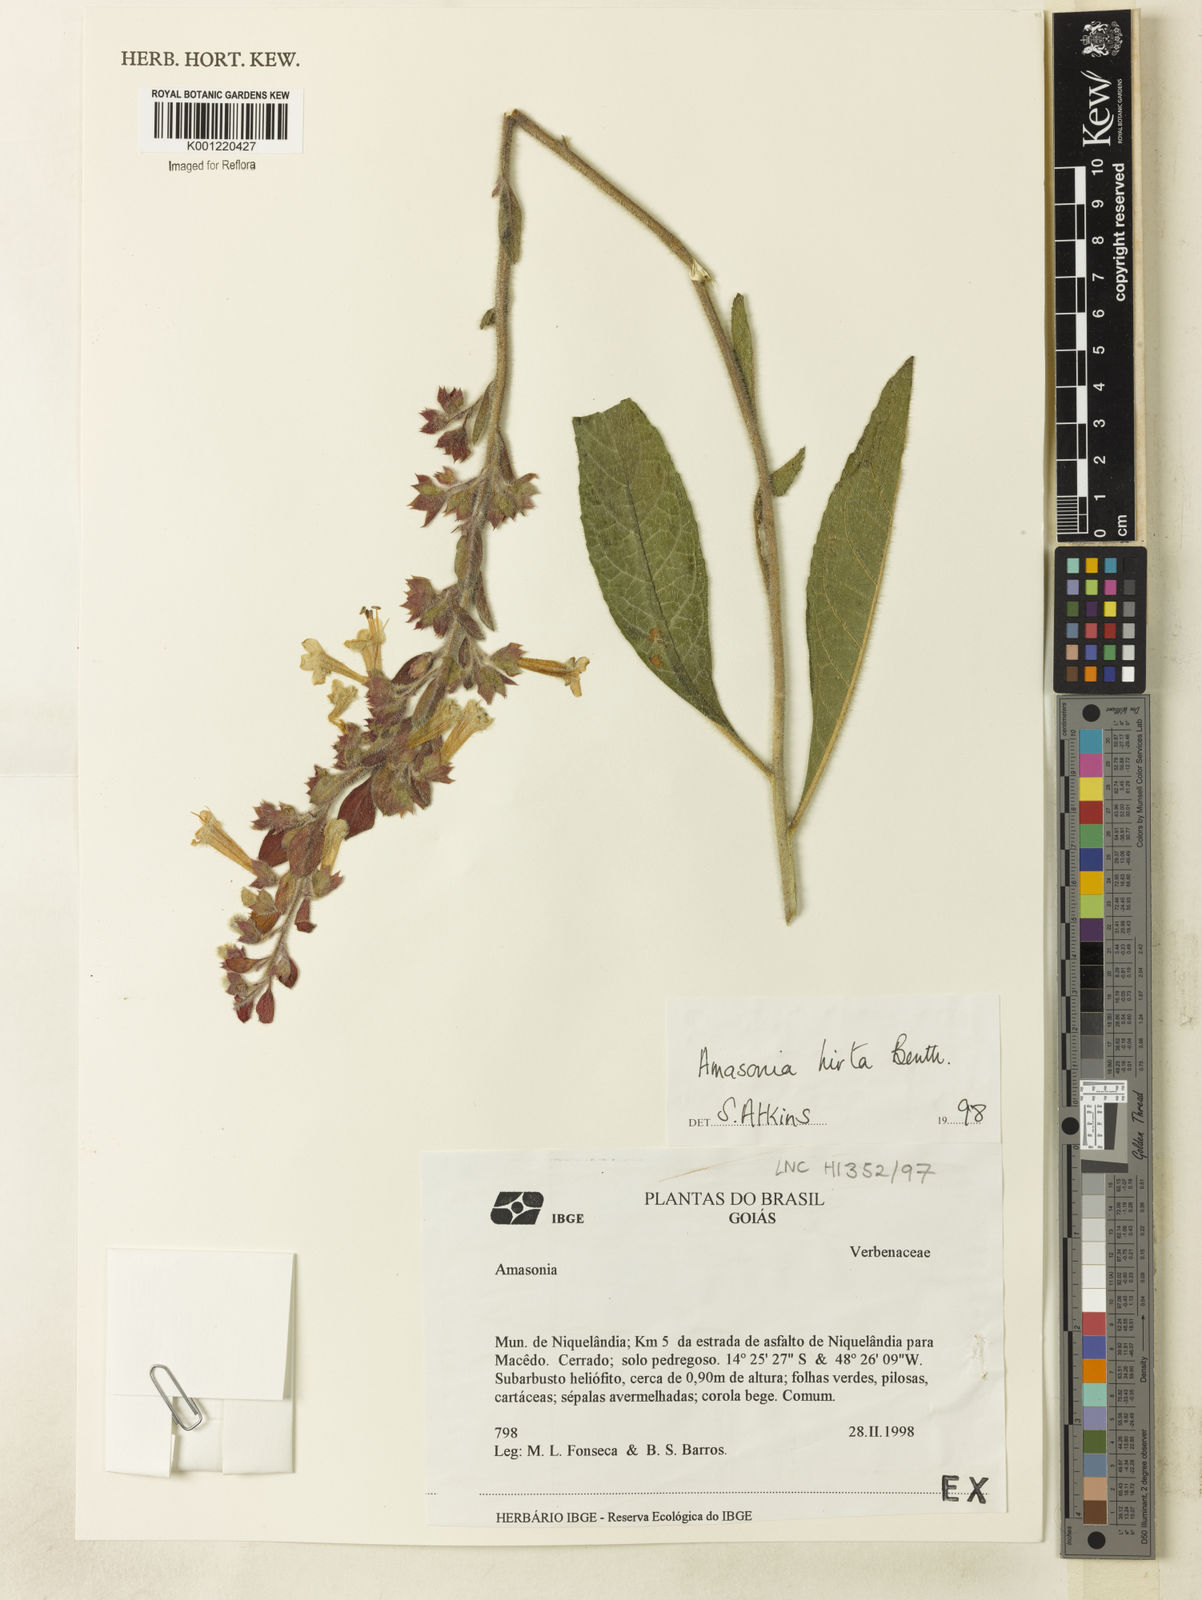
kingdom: Plantae
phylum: Tracheophyta
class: Magnoliopsida
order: Lamiales
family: Lamiaceae
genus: Amasonia
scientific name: Amasonia hirta
